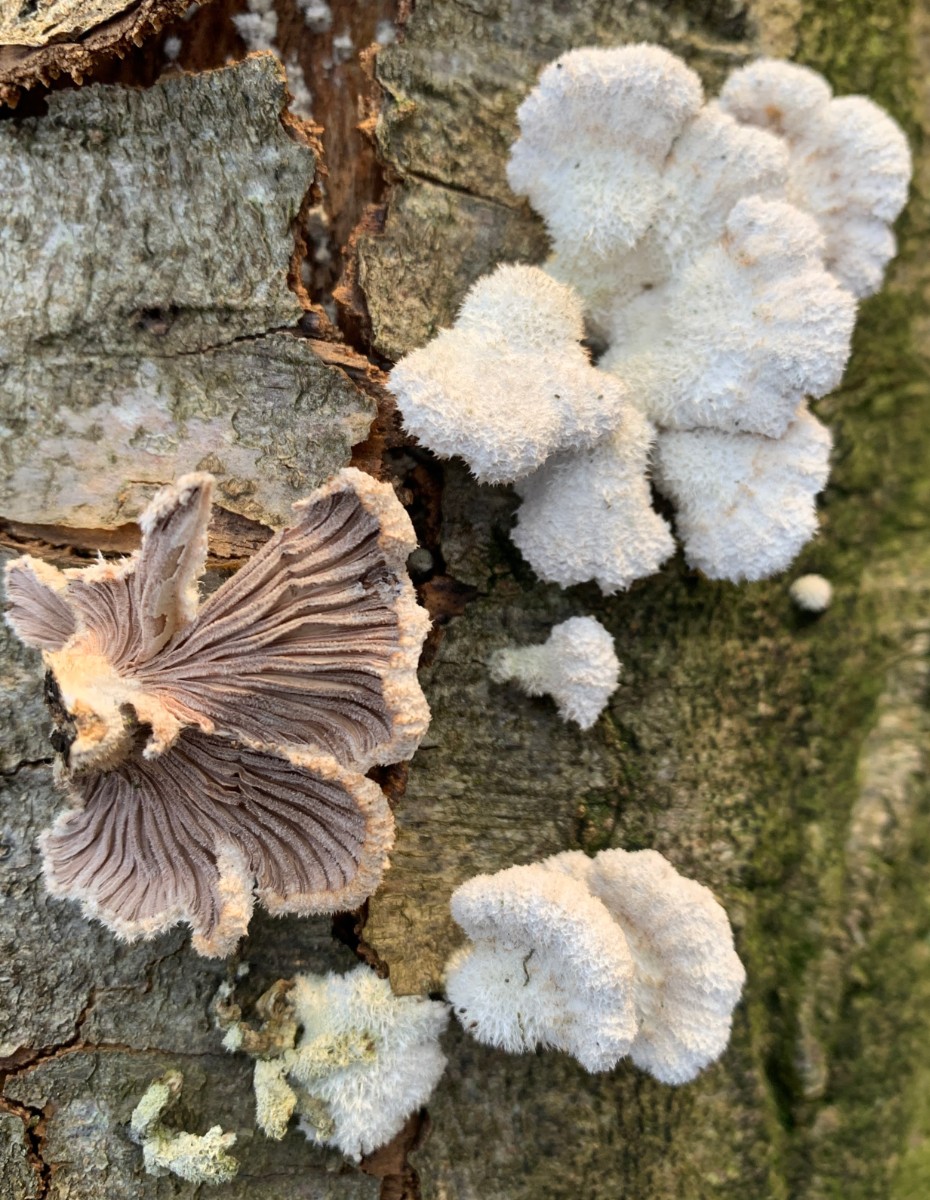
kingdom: Fungi
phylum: Basidiomycota
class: Agaricomycetes
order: Agaricales
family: Schizophyllaceae
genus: Schizophyllum
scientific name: Schizophyllum commune
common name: kløvblad
